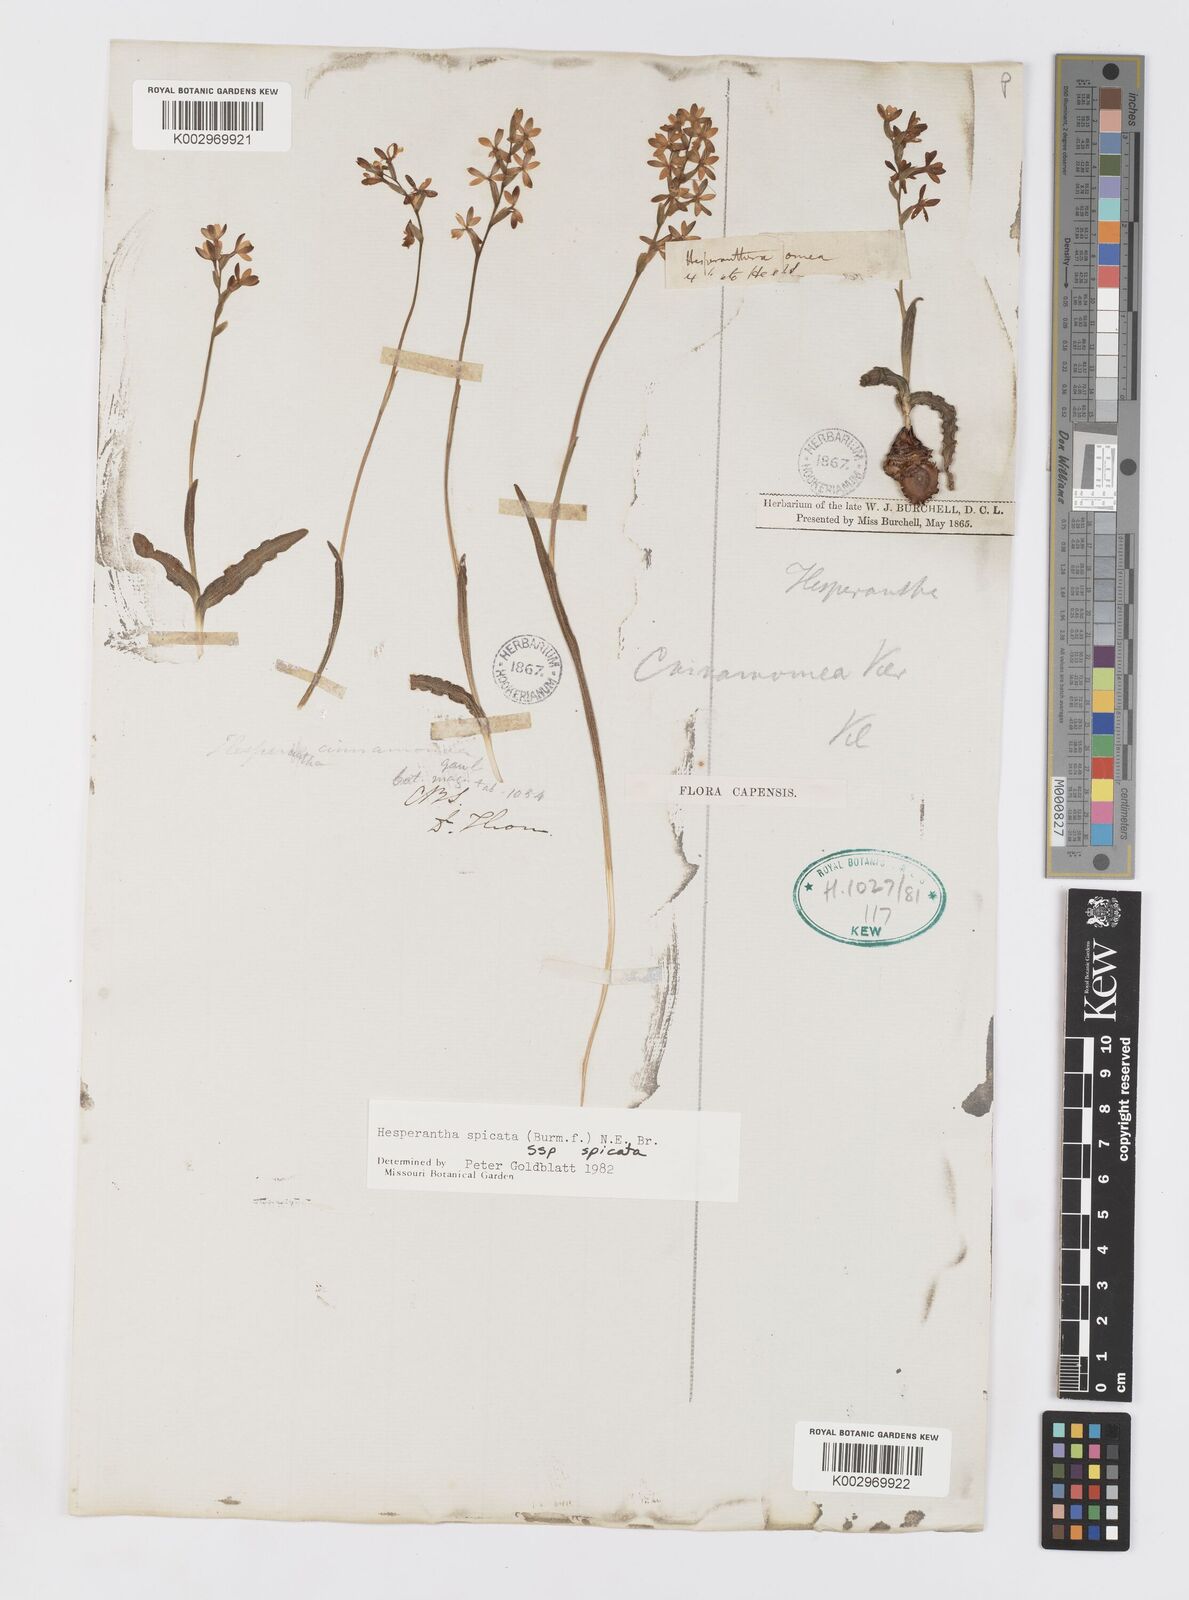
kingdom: Plantae
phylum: Tracheophyta
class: Liliopsida
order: Asparagales
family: Iridaceae
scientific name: Iridaceae
